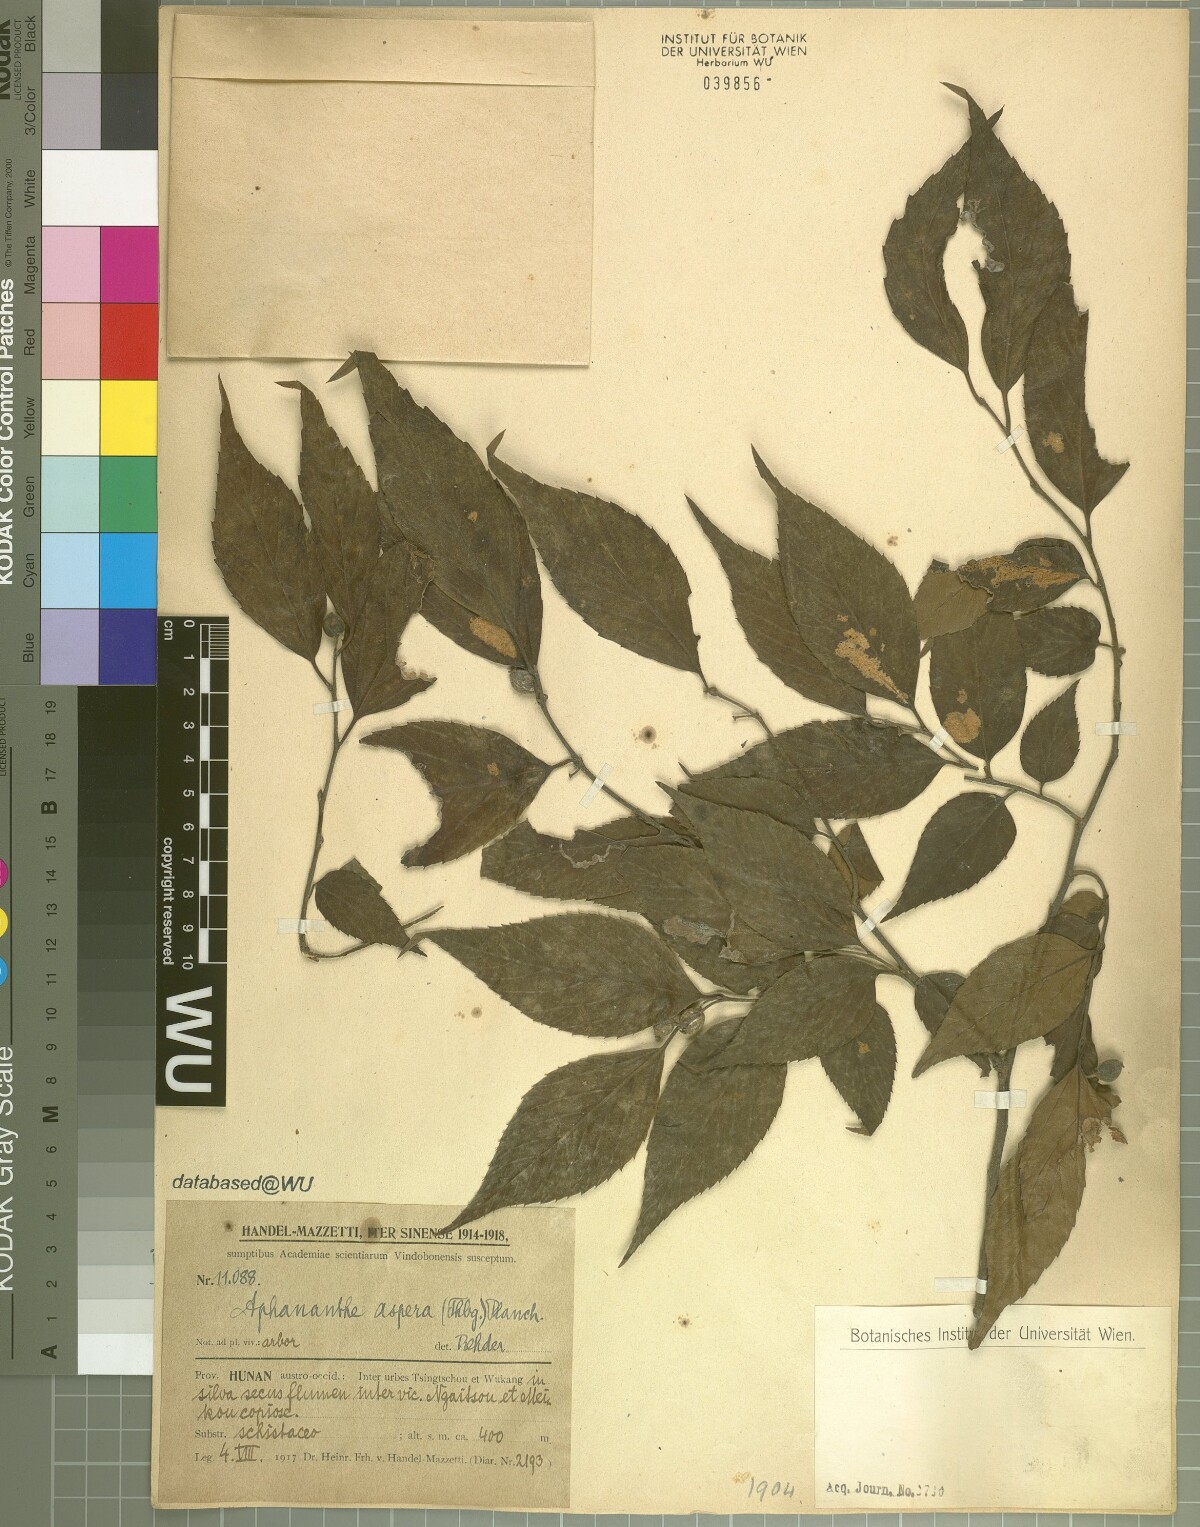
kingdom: Plantae
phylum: Tracheophyta
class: Magnoliopsida
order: Rosales
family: Cannabaceae
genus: Aphananthe
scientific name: Aphananthe aspera
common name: Mukutree
